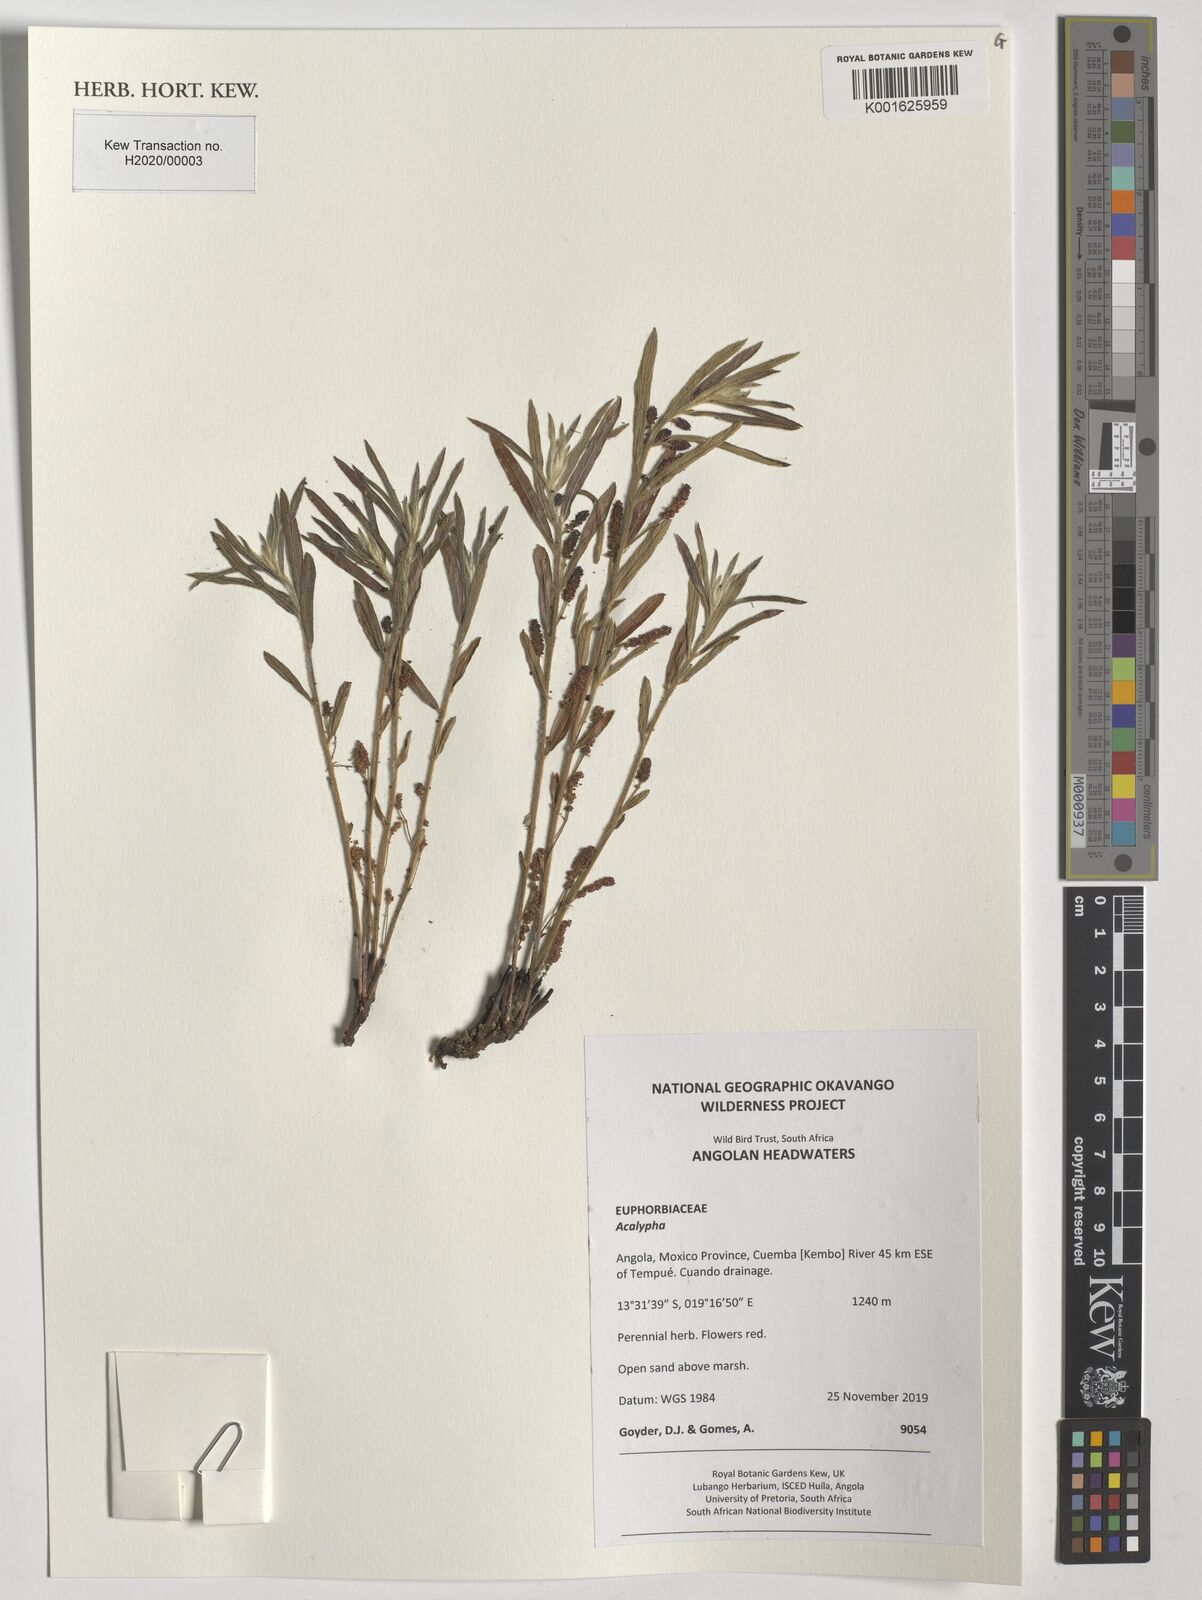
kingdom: Plantae
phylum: Tracheophyta
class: Magnoliopsida
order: Malpighiales
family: Euphorbiaceae
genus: Acalypha
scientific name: Acalypha
